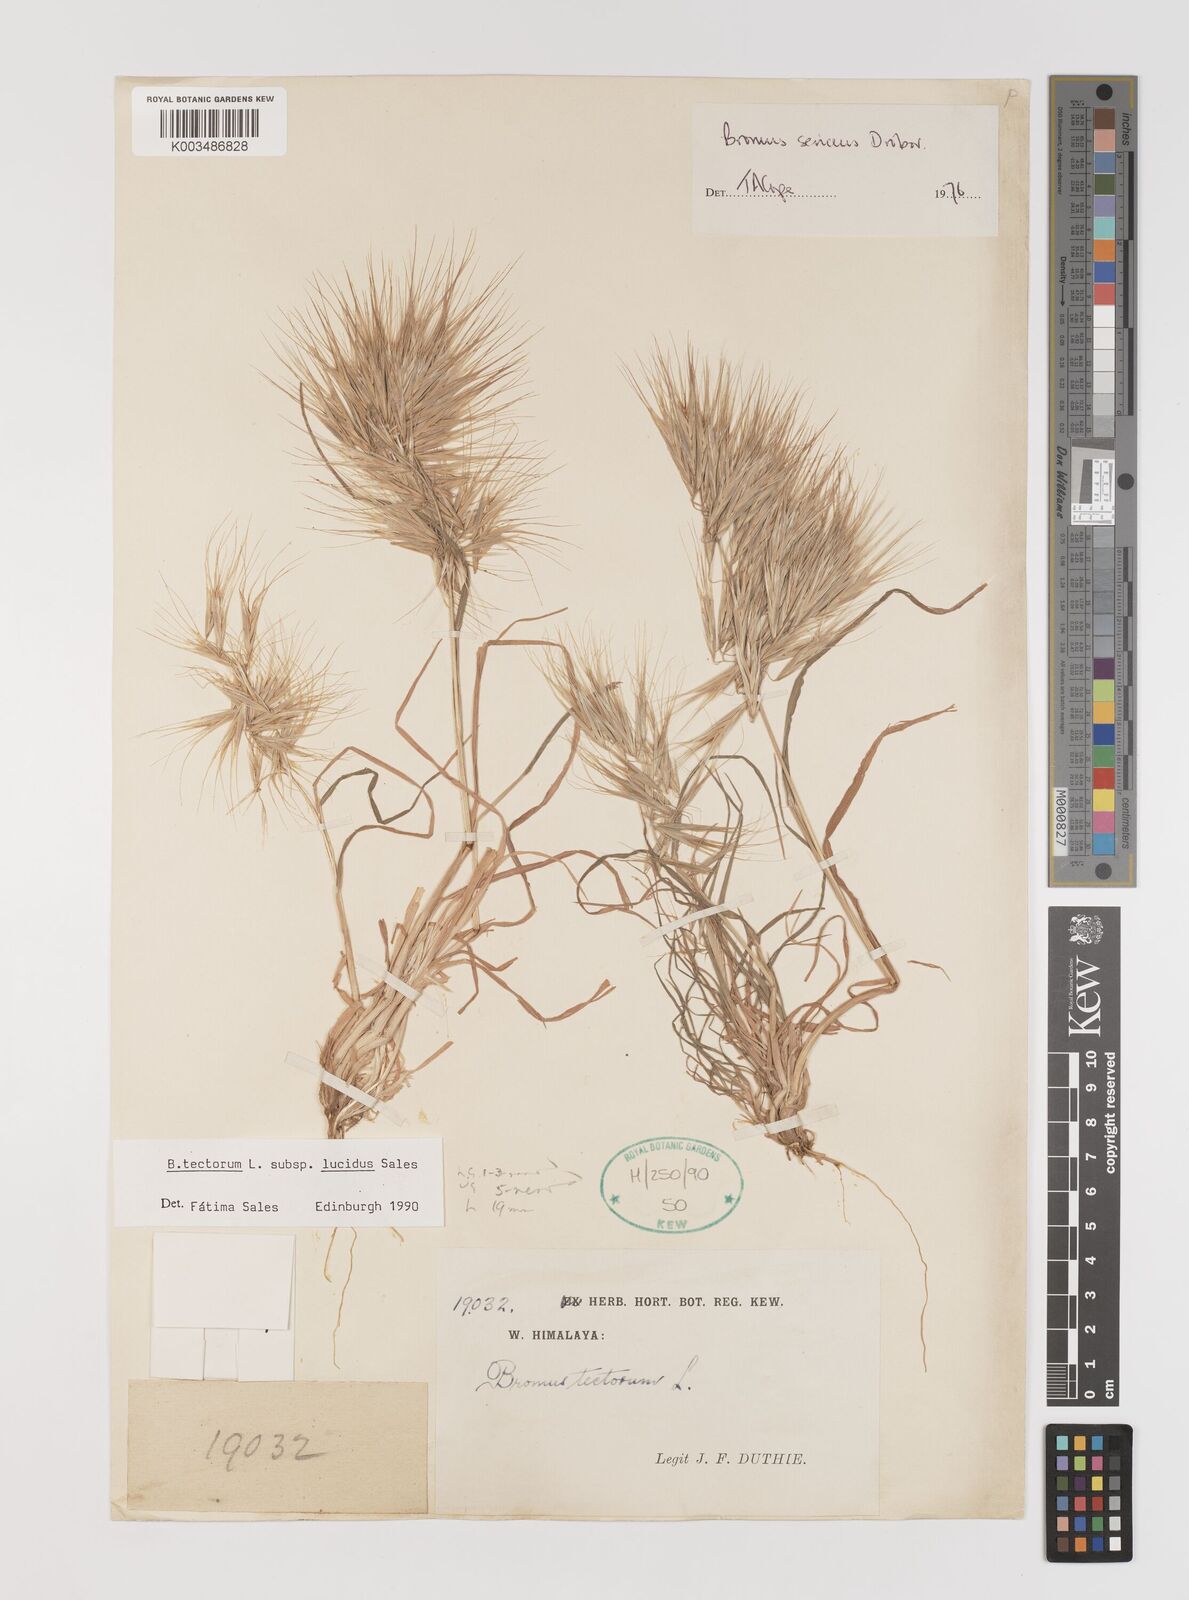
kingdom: Plantae
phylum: Tracheophyta
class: Liliopsida
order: Poales
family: Poaceae
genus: Bromus
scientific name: Bromus tectorum
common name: Cheatgrass
